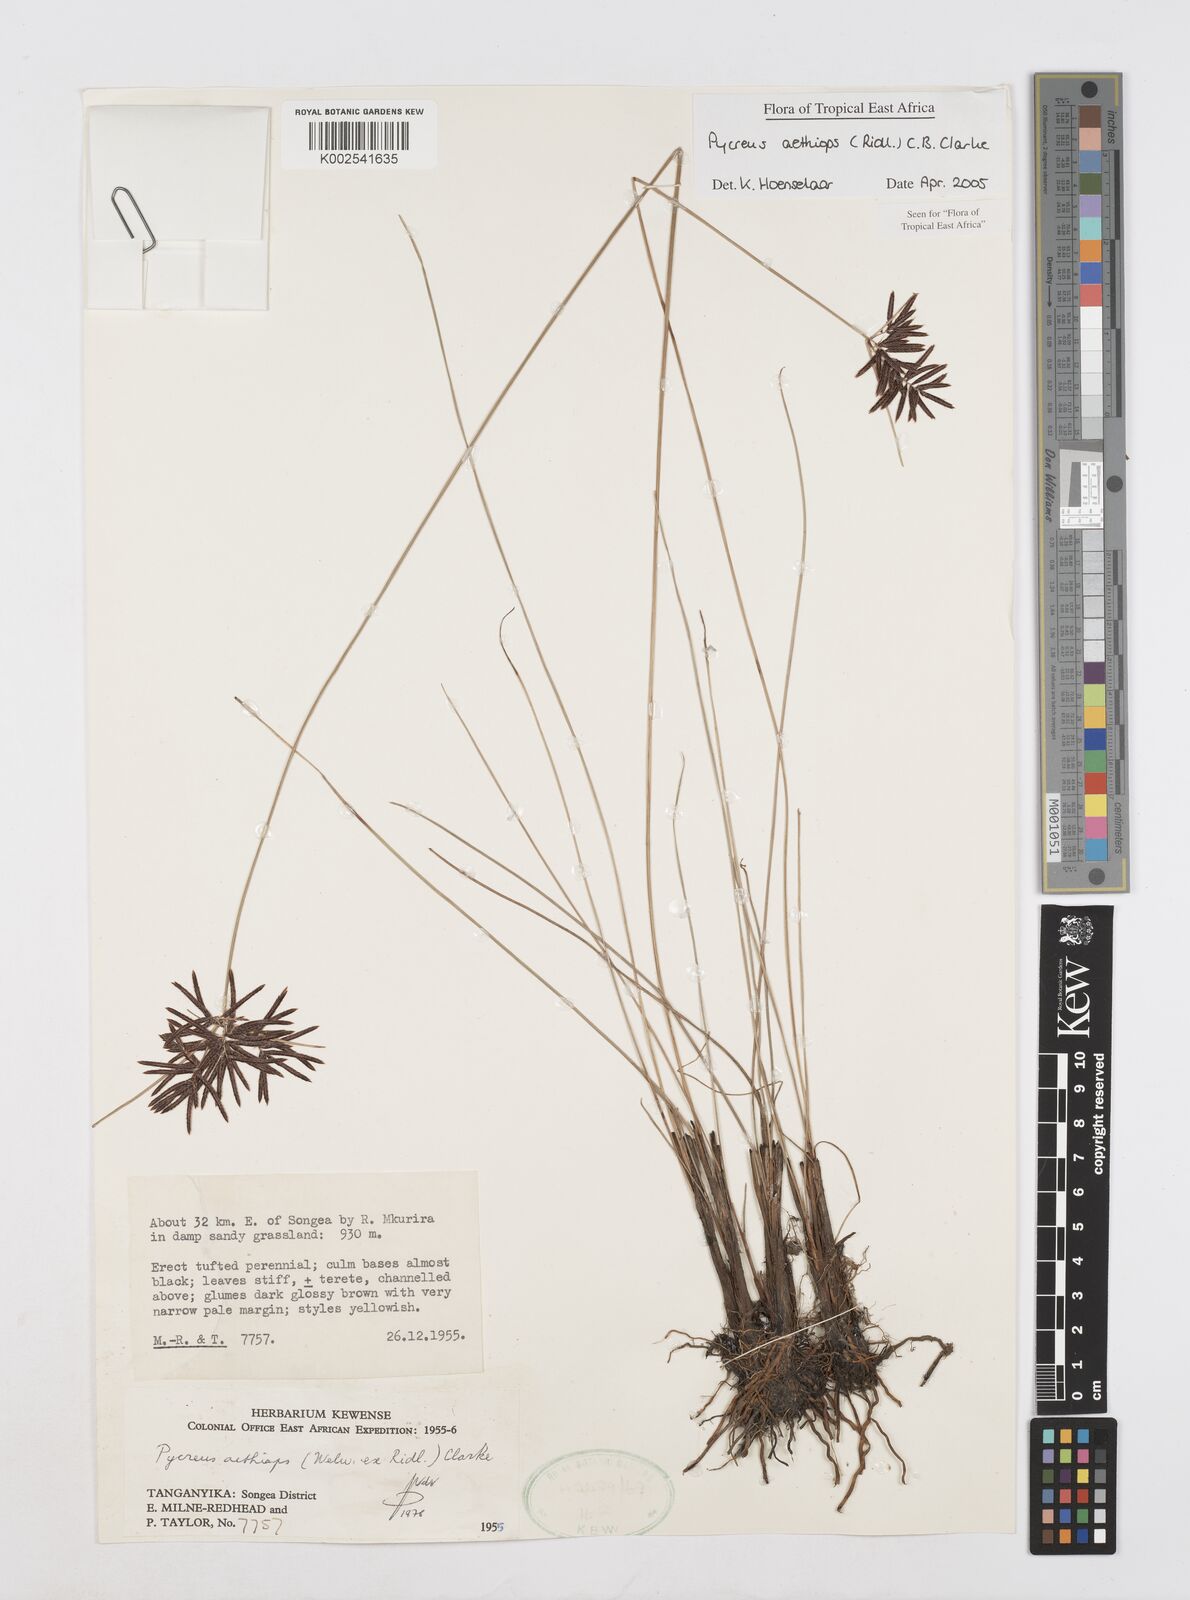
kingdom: Plantae
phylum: Tracheophyta
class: Liliopsida
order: Poales
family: Cyperaceae
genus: Cyperus
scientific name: Cyperus aethiops
